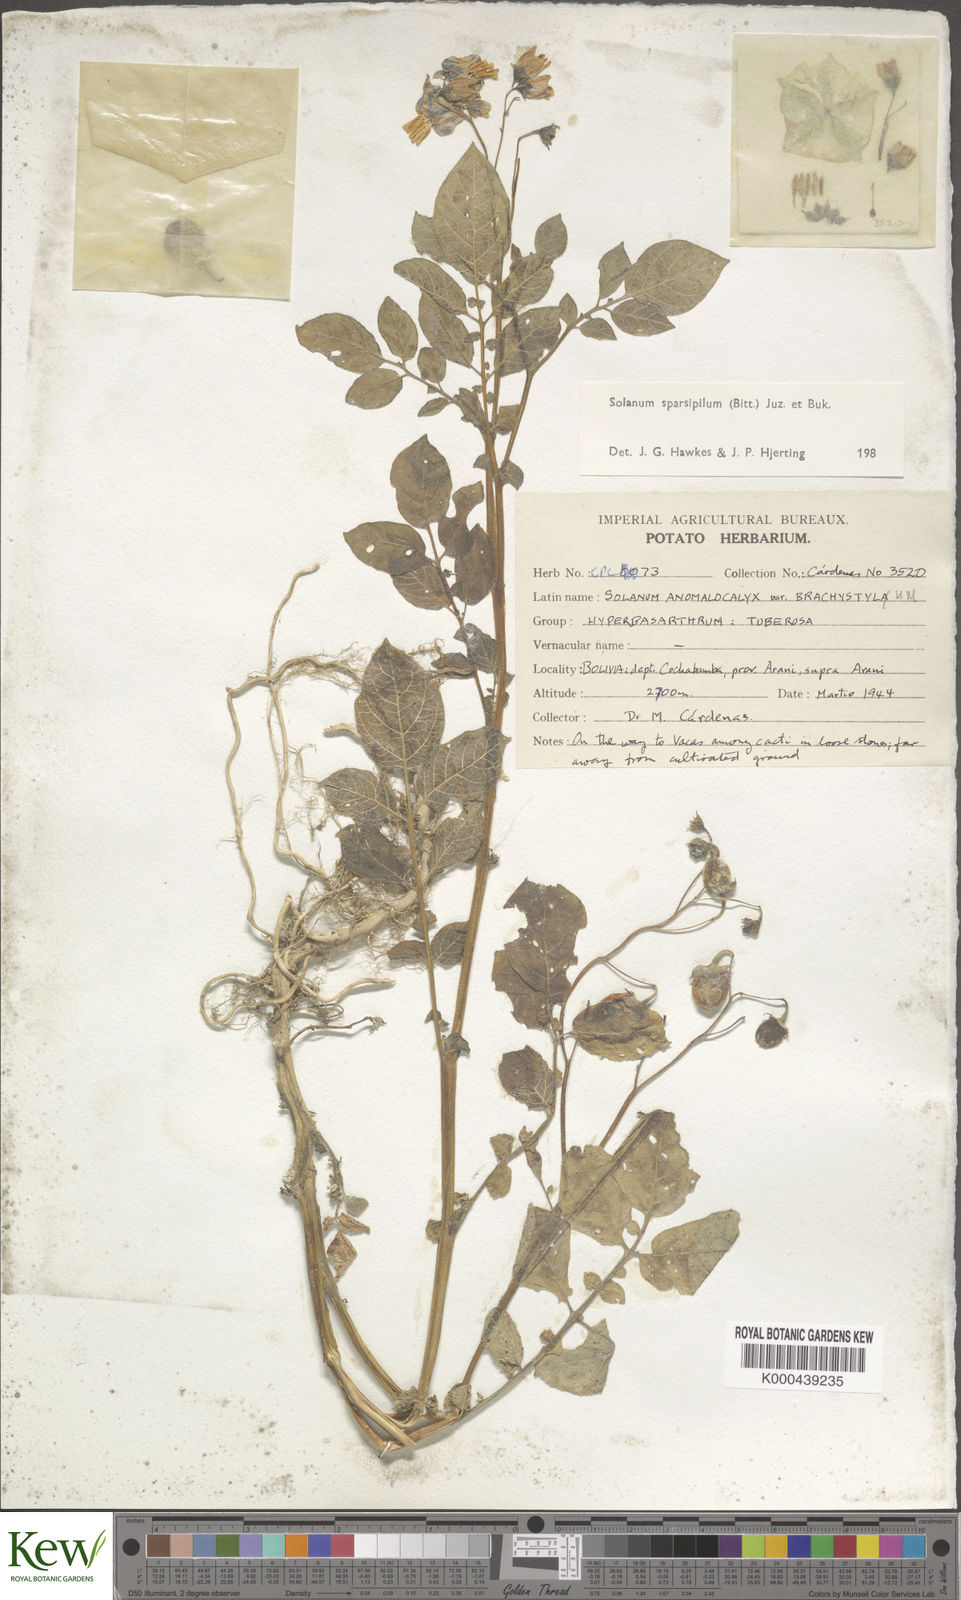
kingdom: Plantae
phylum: Tracheophyta
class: Magnoliopsida
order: Solanales
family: Solanaceae
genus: Solanum
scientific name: Solanum brevicaule
